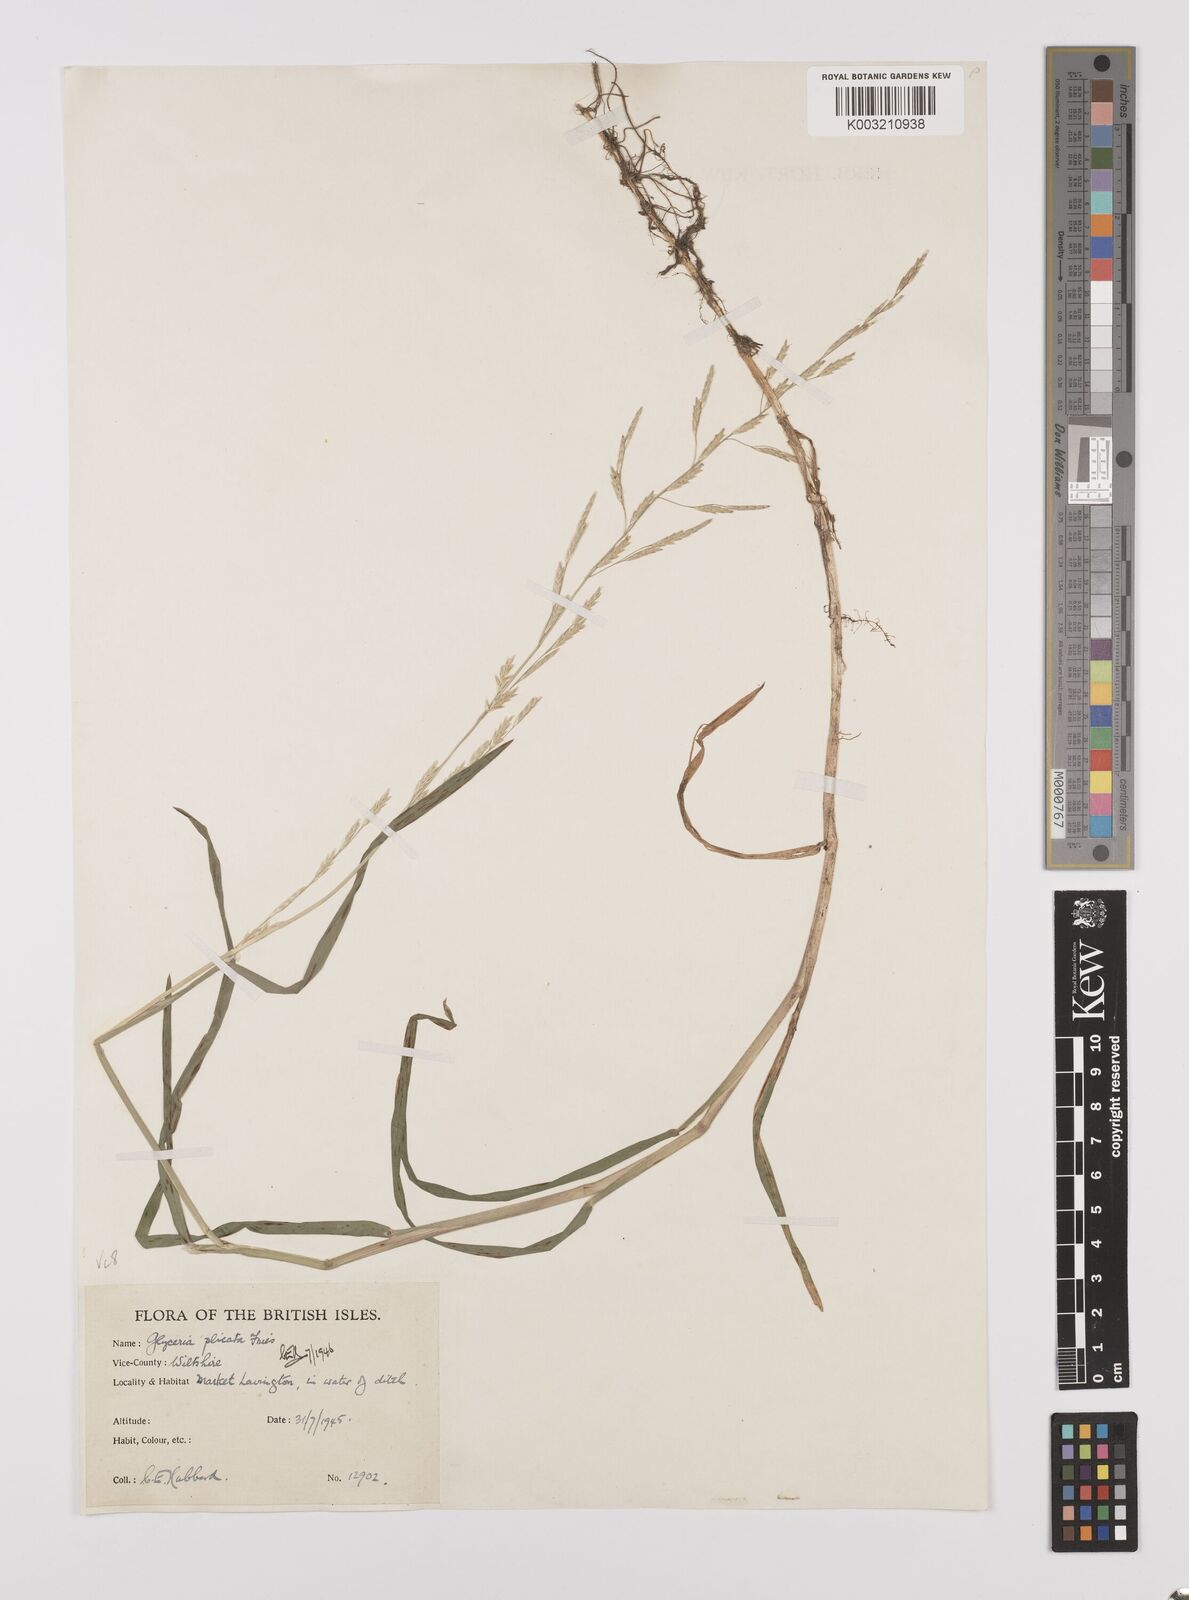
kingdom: Plantae
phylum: Tracheophyta
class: Liliopsida
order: Poales
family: Poaceae
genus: Glyceria
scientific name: Glyceria notata
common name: Plicate sweet-grass
